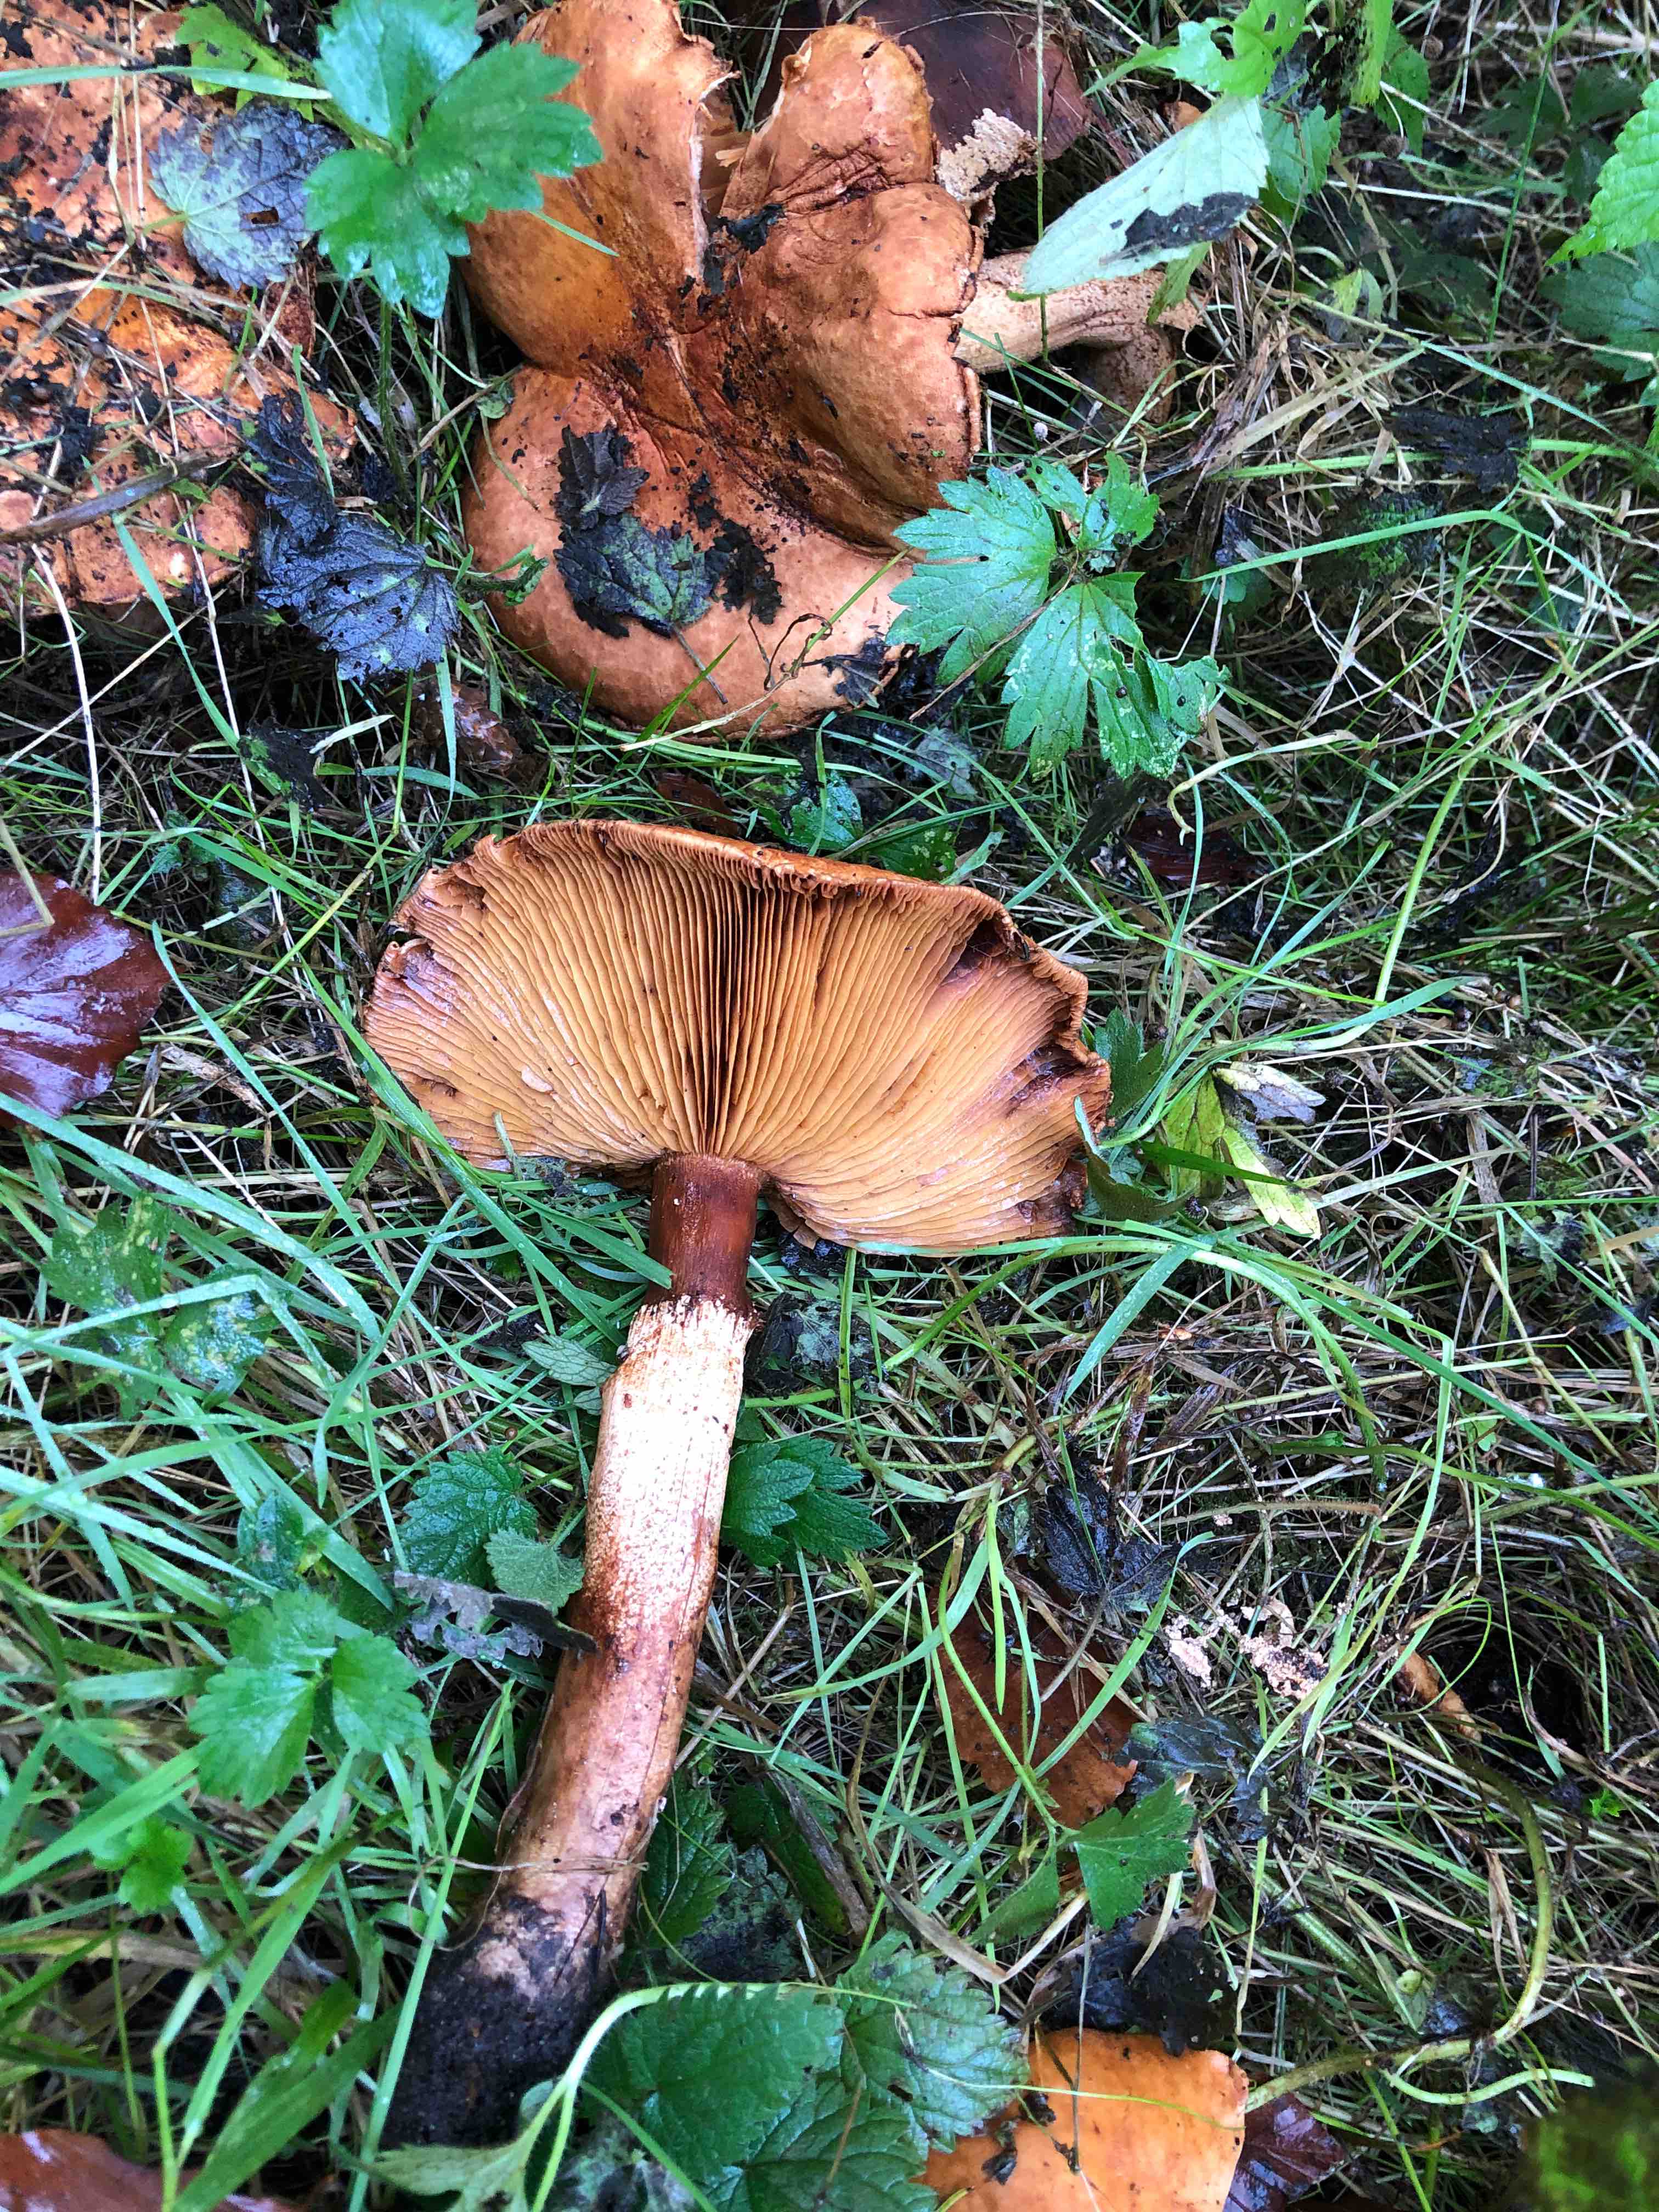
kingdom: Fungi
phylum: Basidiomycota
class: Agaricomycetes
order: Agaricales
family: Tricholomataceae
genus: Phaeolepiota
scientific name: Phaeolepiota aurea
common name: gyldenhat
